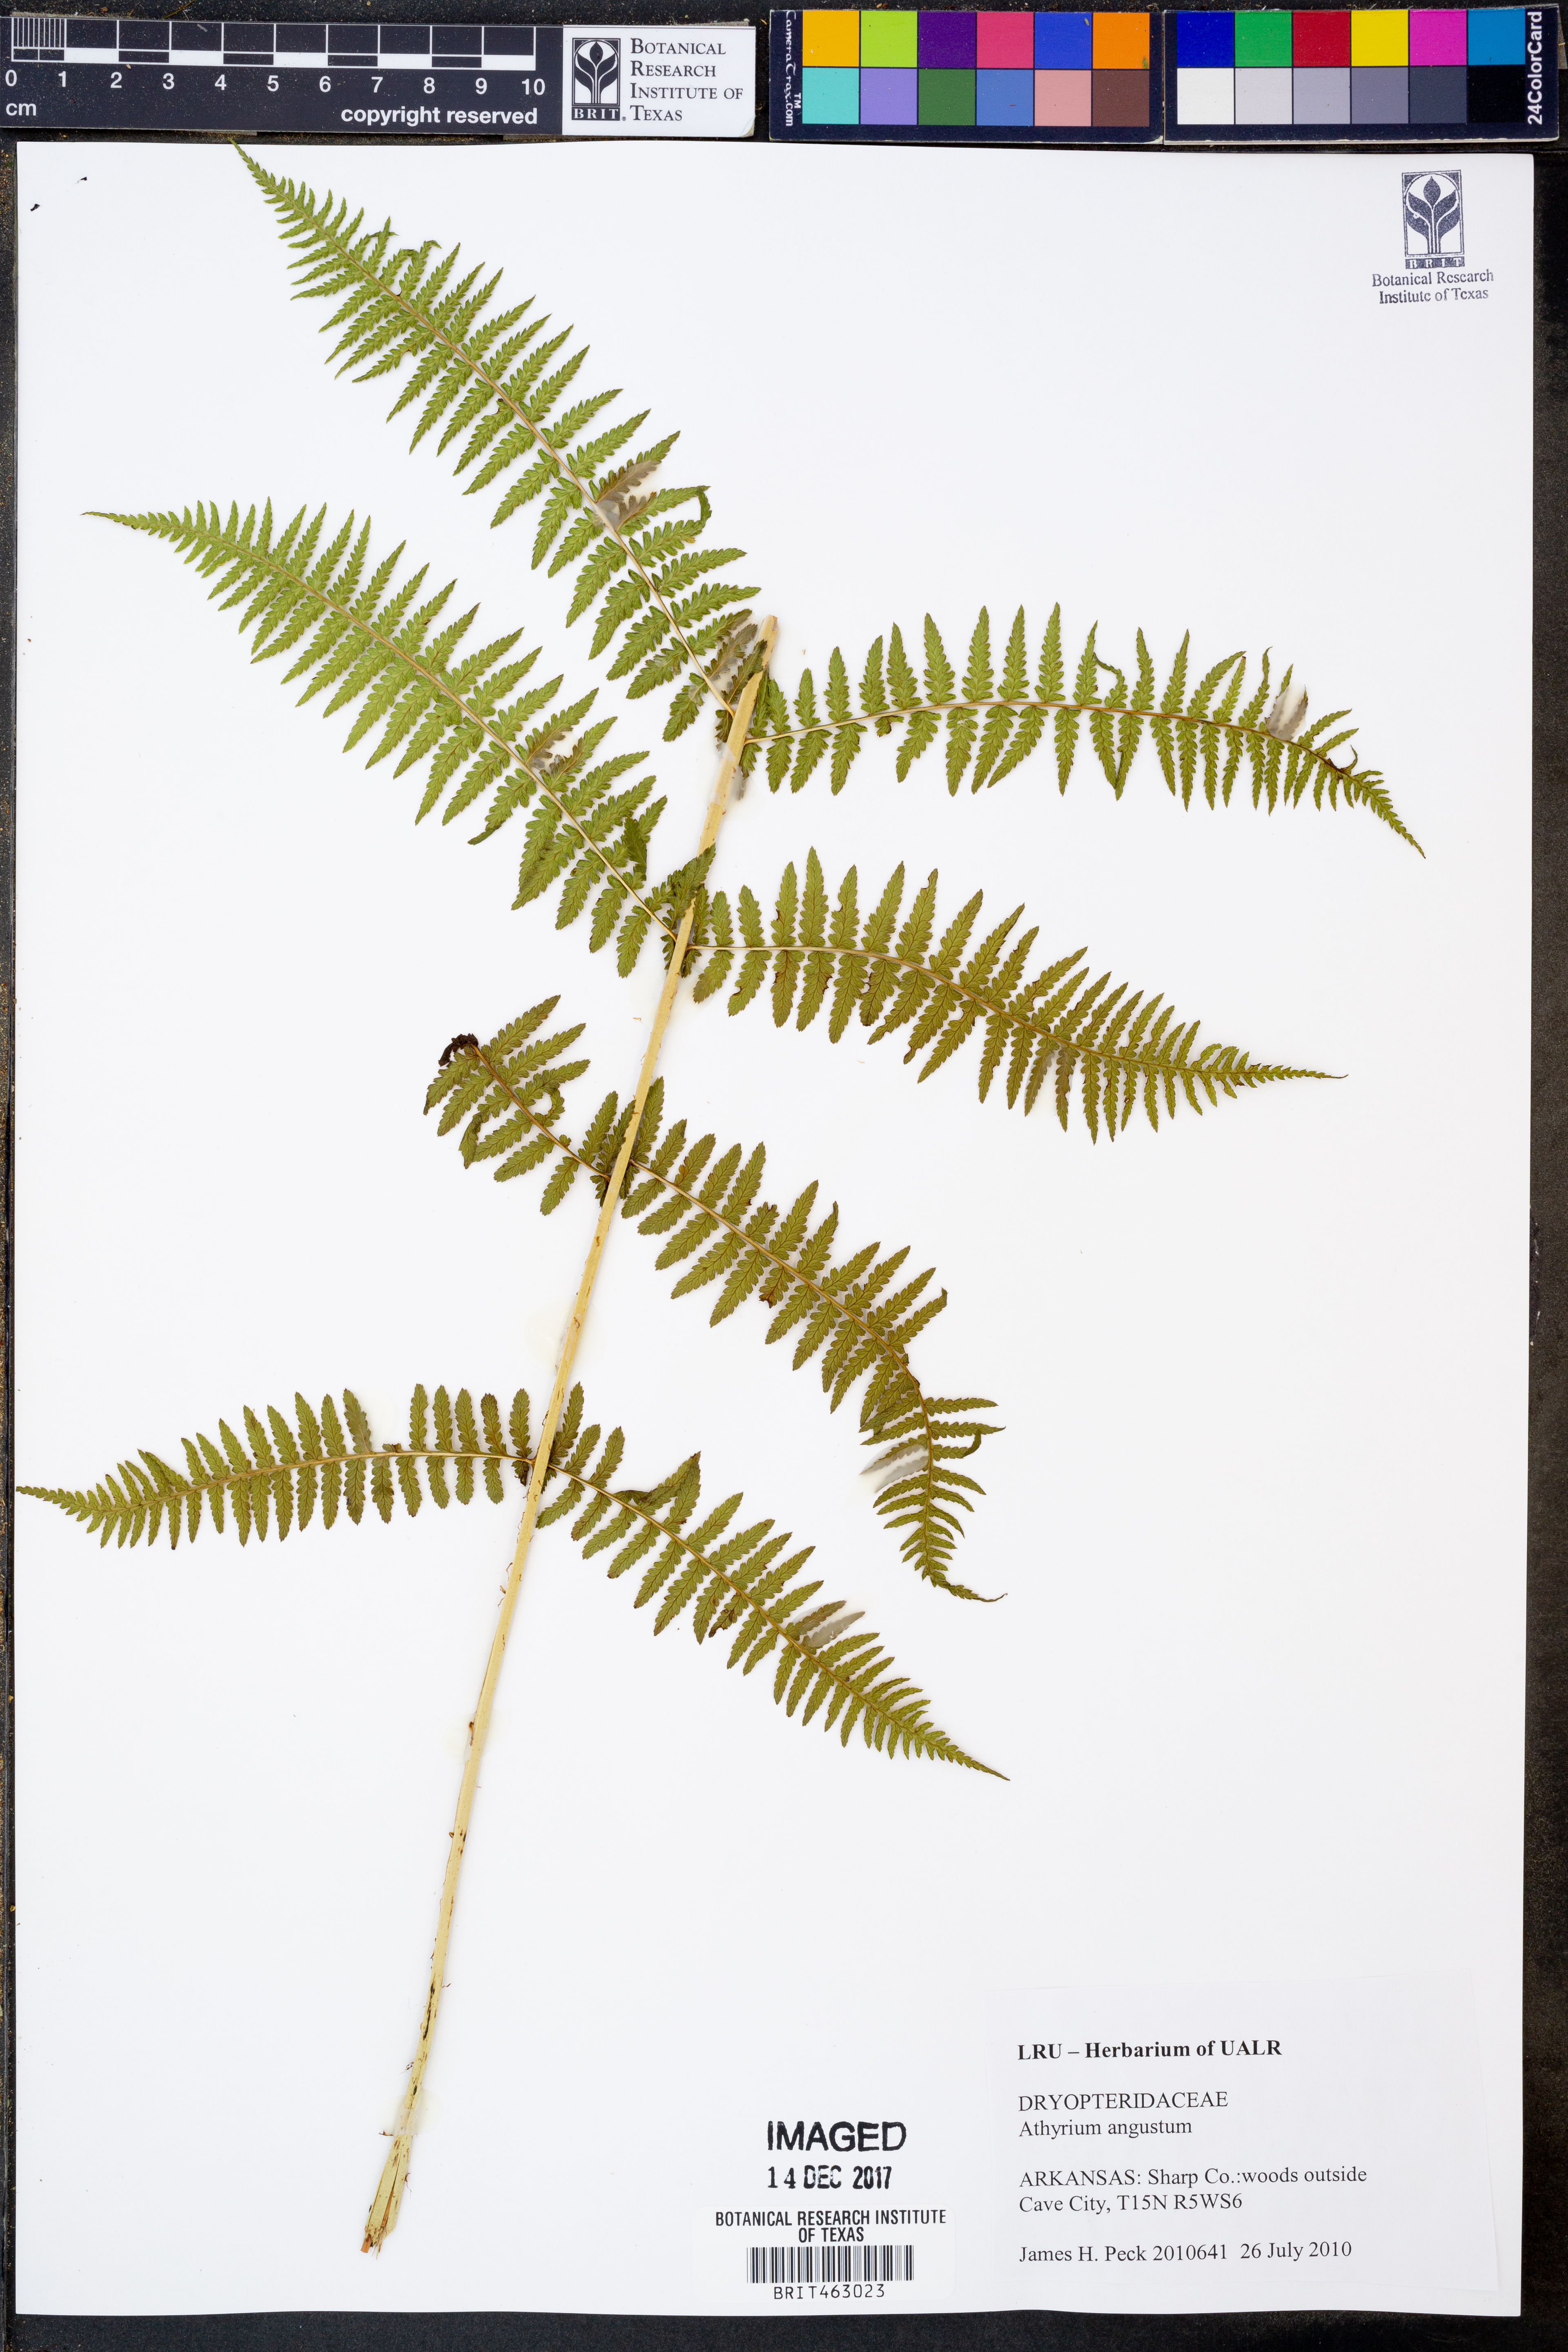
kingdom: Plantae
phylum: Tracheophyta
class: Polypodiopsida
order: Polypodiales
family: Athyriaceae
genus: Athyrium
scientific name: Athyrium angustum
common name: Northern lady fern
